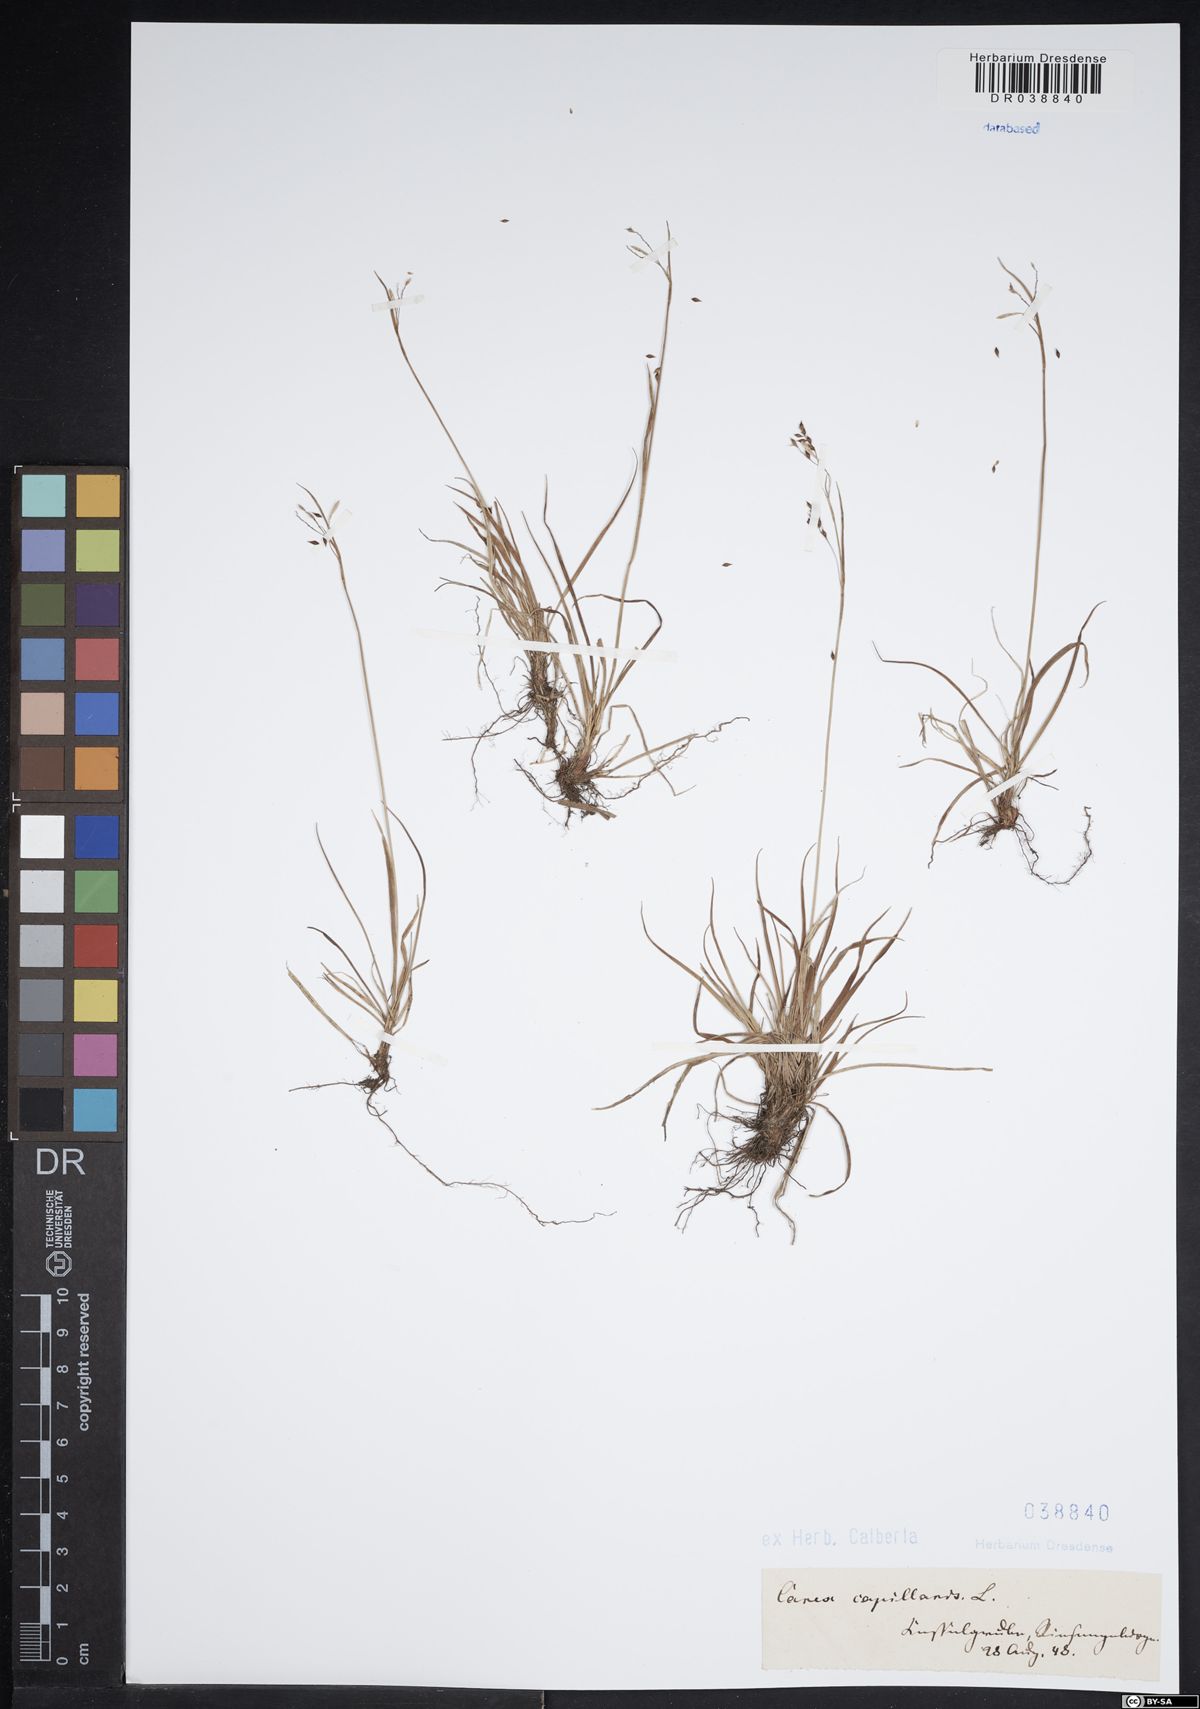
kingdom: Plantae
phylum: Tracheophyta
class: Liliopsida
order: Poales
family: Cyperaceae
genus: Carex
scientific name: Carex capillaris
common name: Hair sedge
